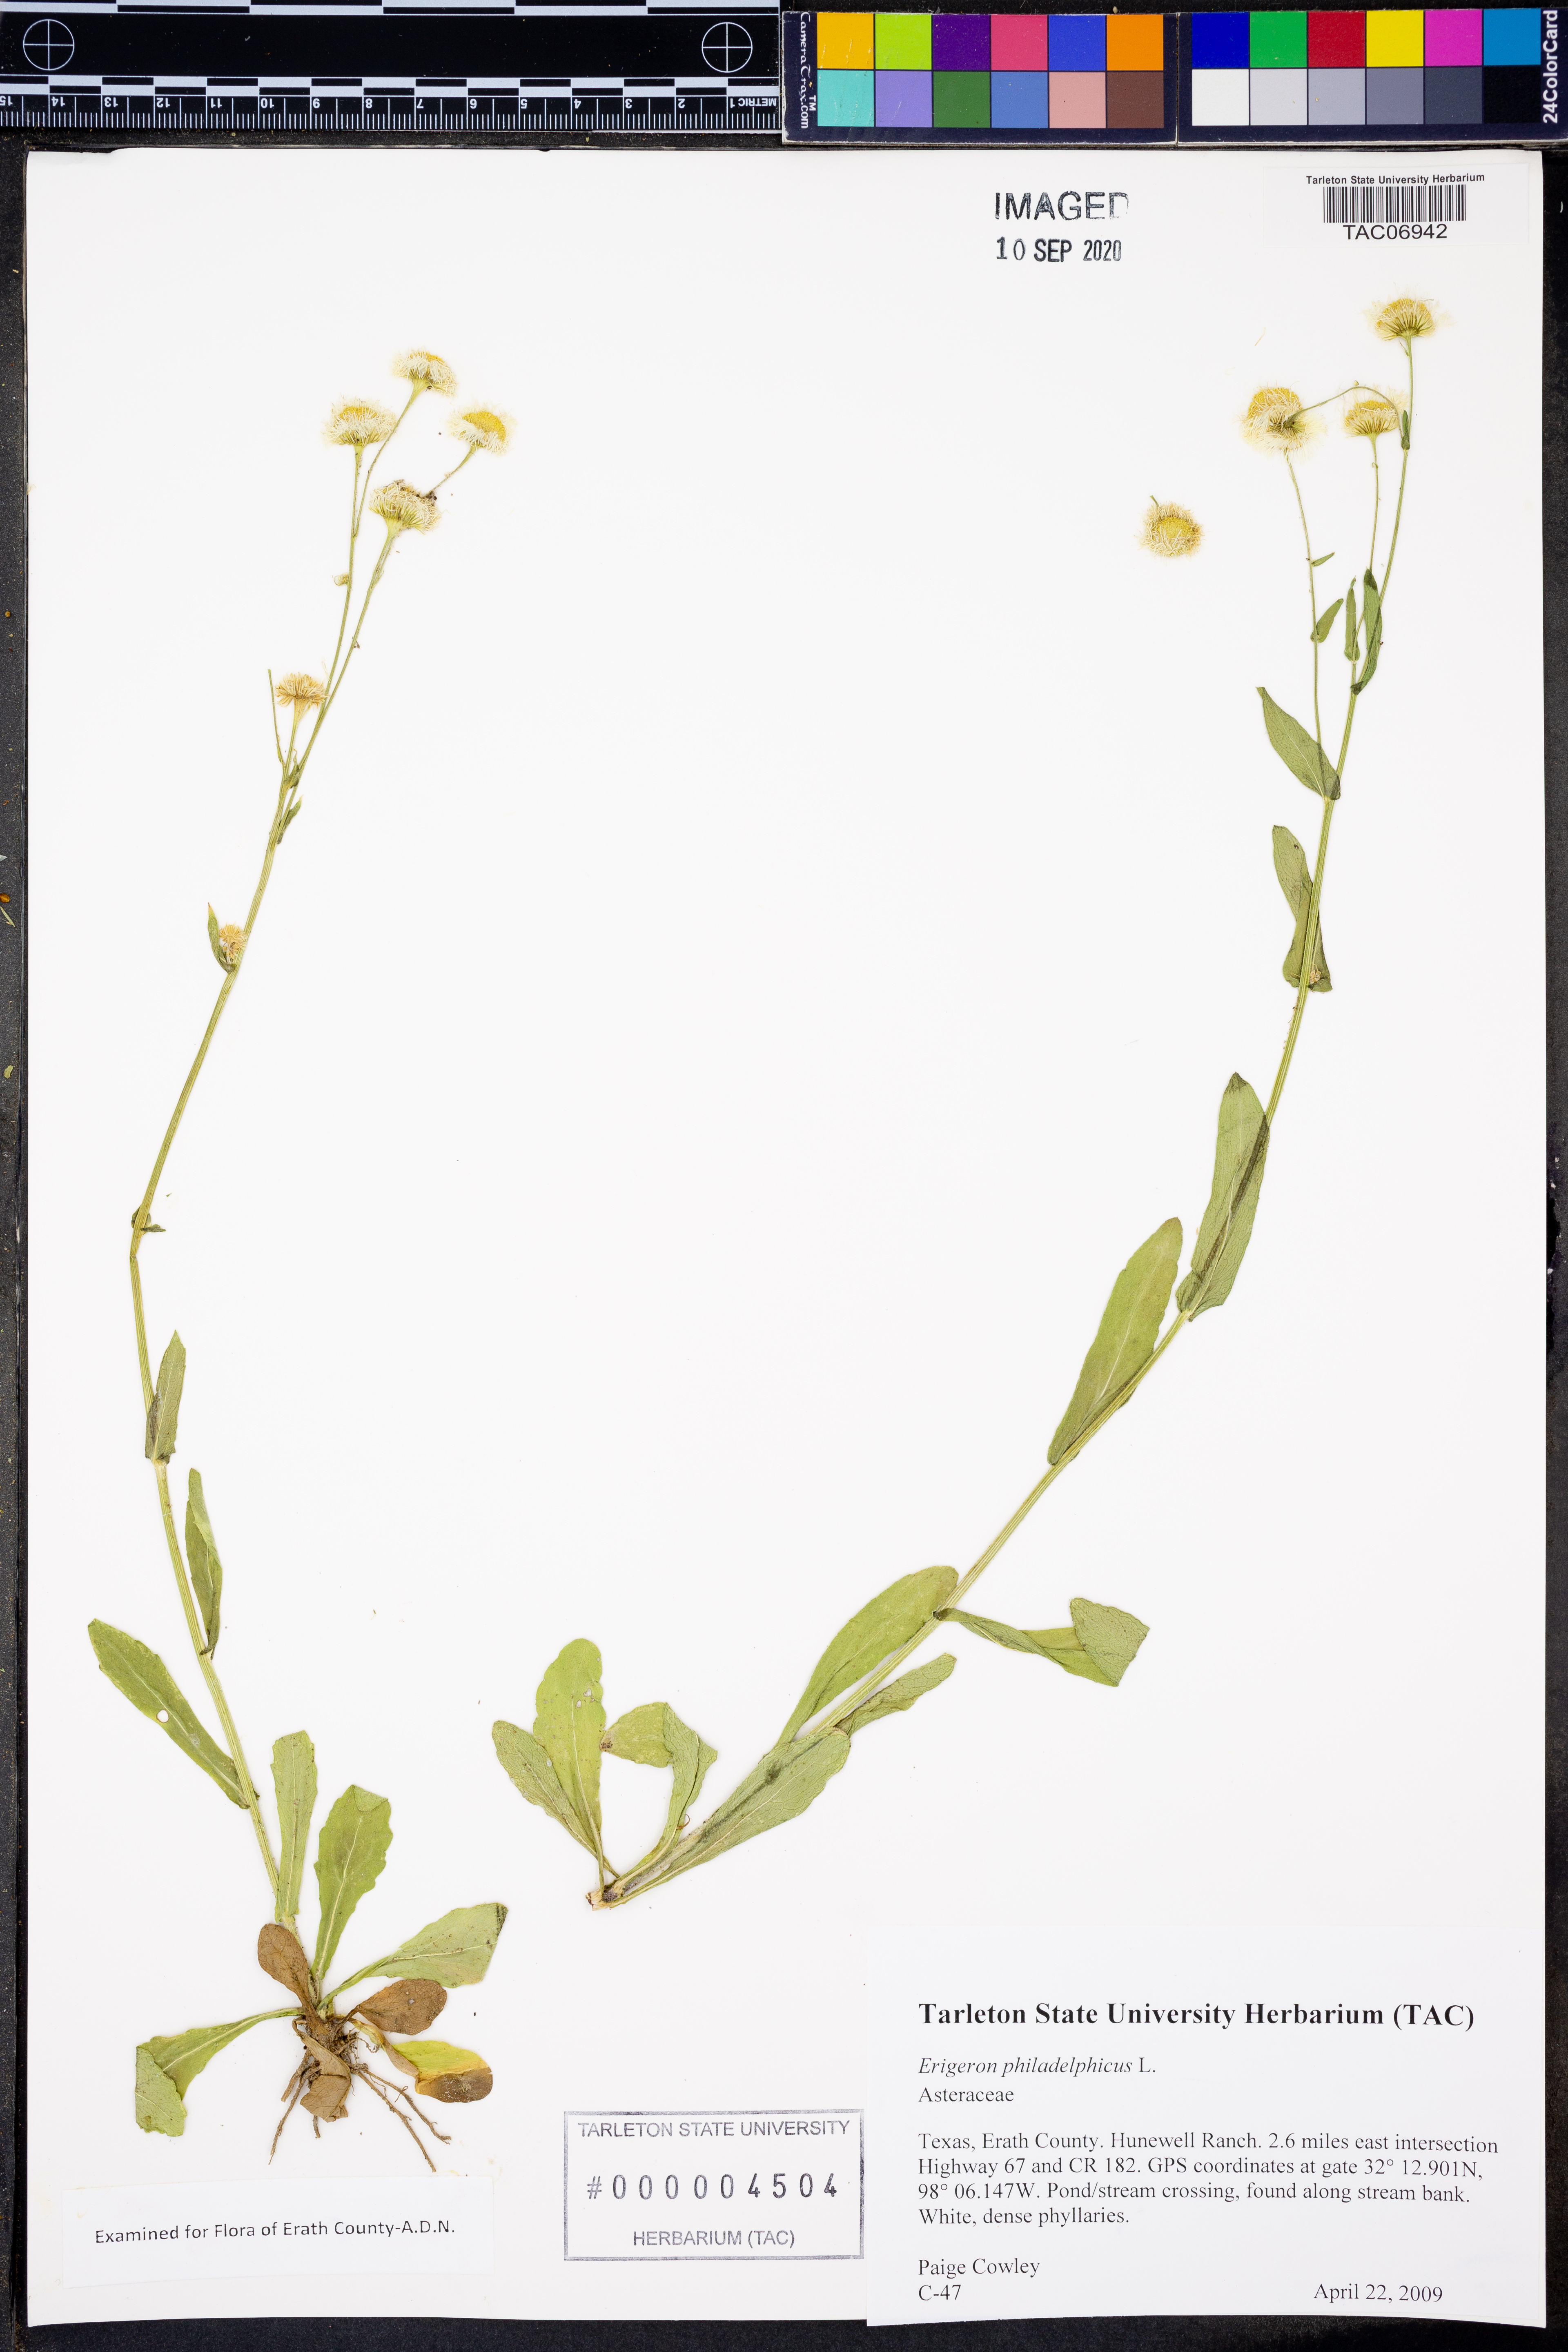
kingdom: Plantae
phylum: Tracheophyta
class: Magnoliopsida
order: Asterales
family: Asteraceae
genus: Erigeron
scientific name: Erigeron philadelphicus
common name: Robin's-plantain
